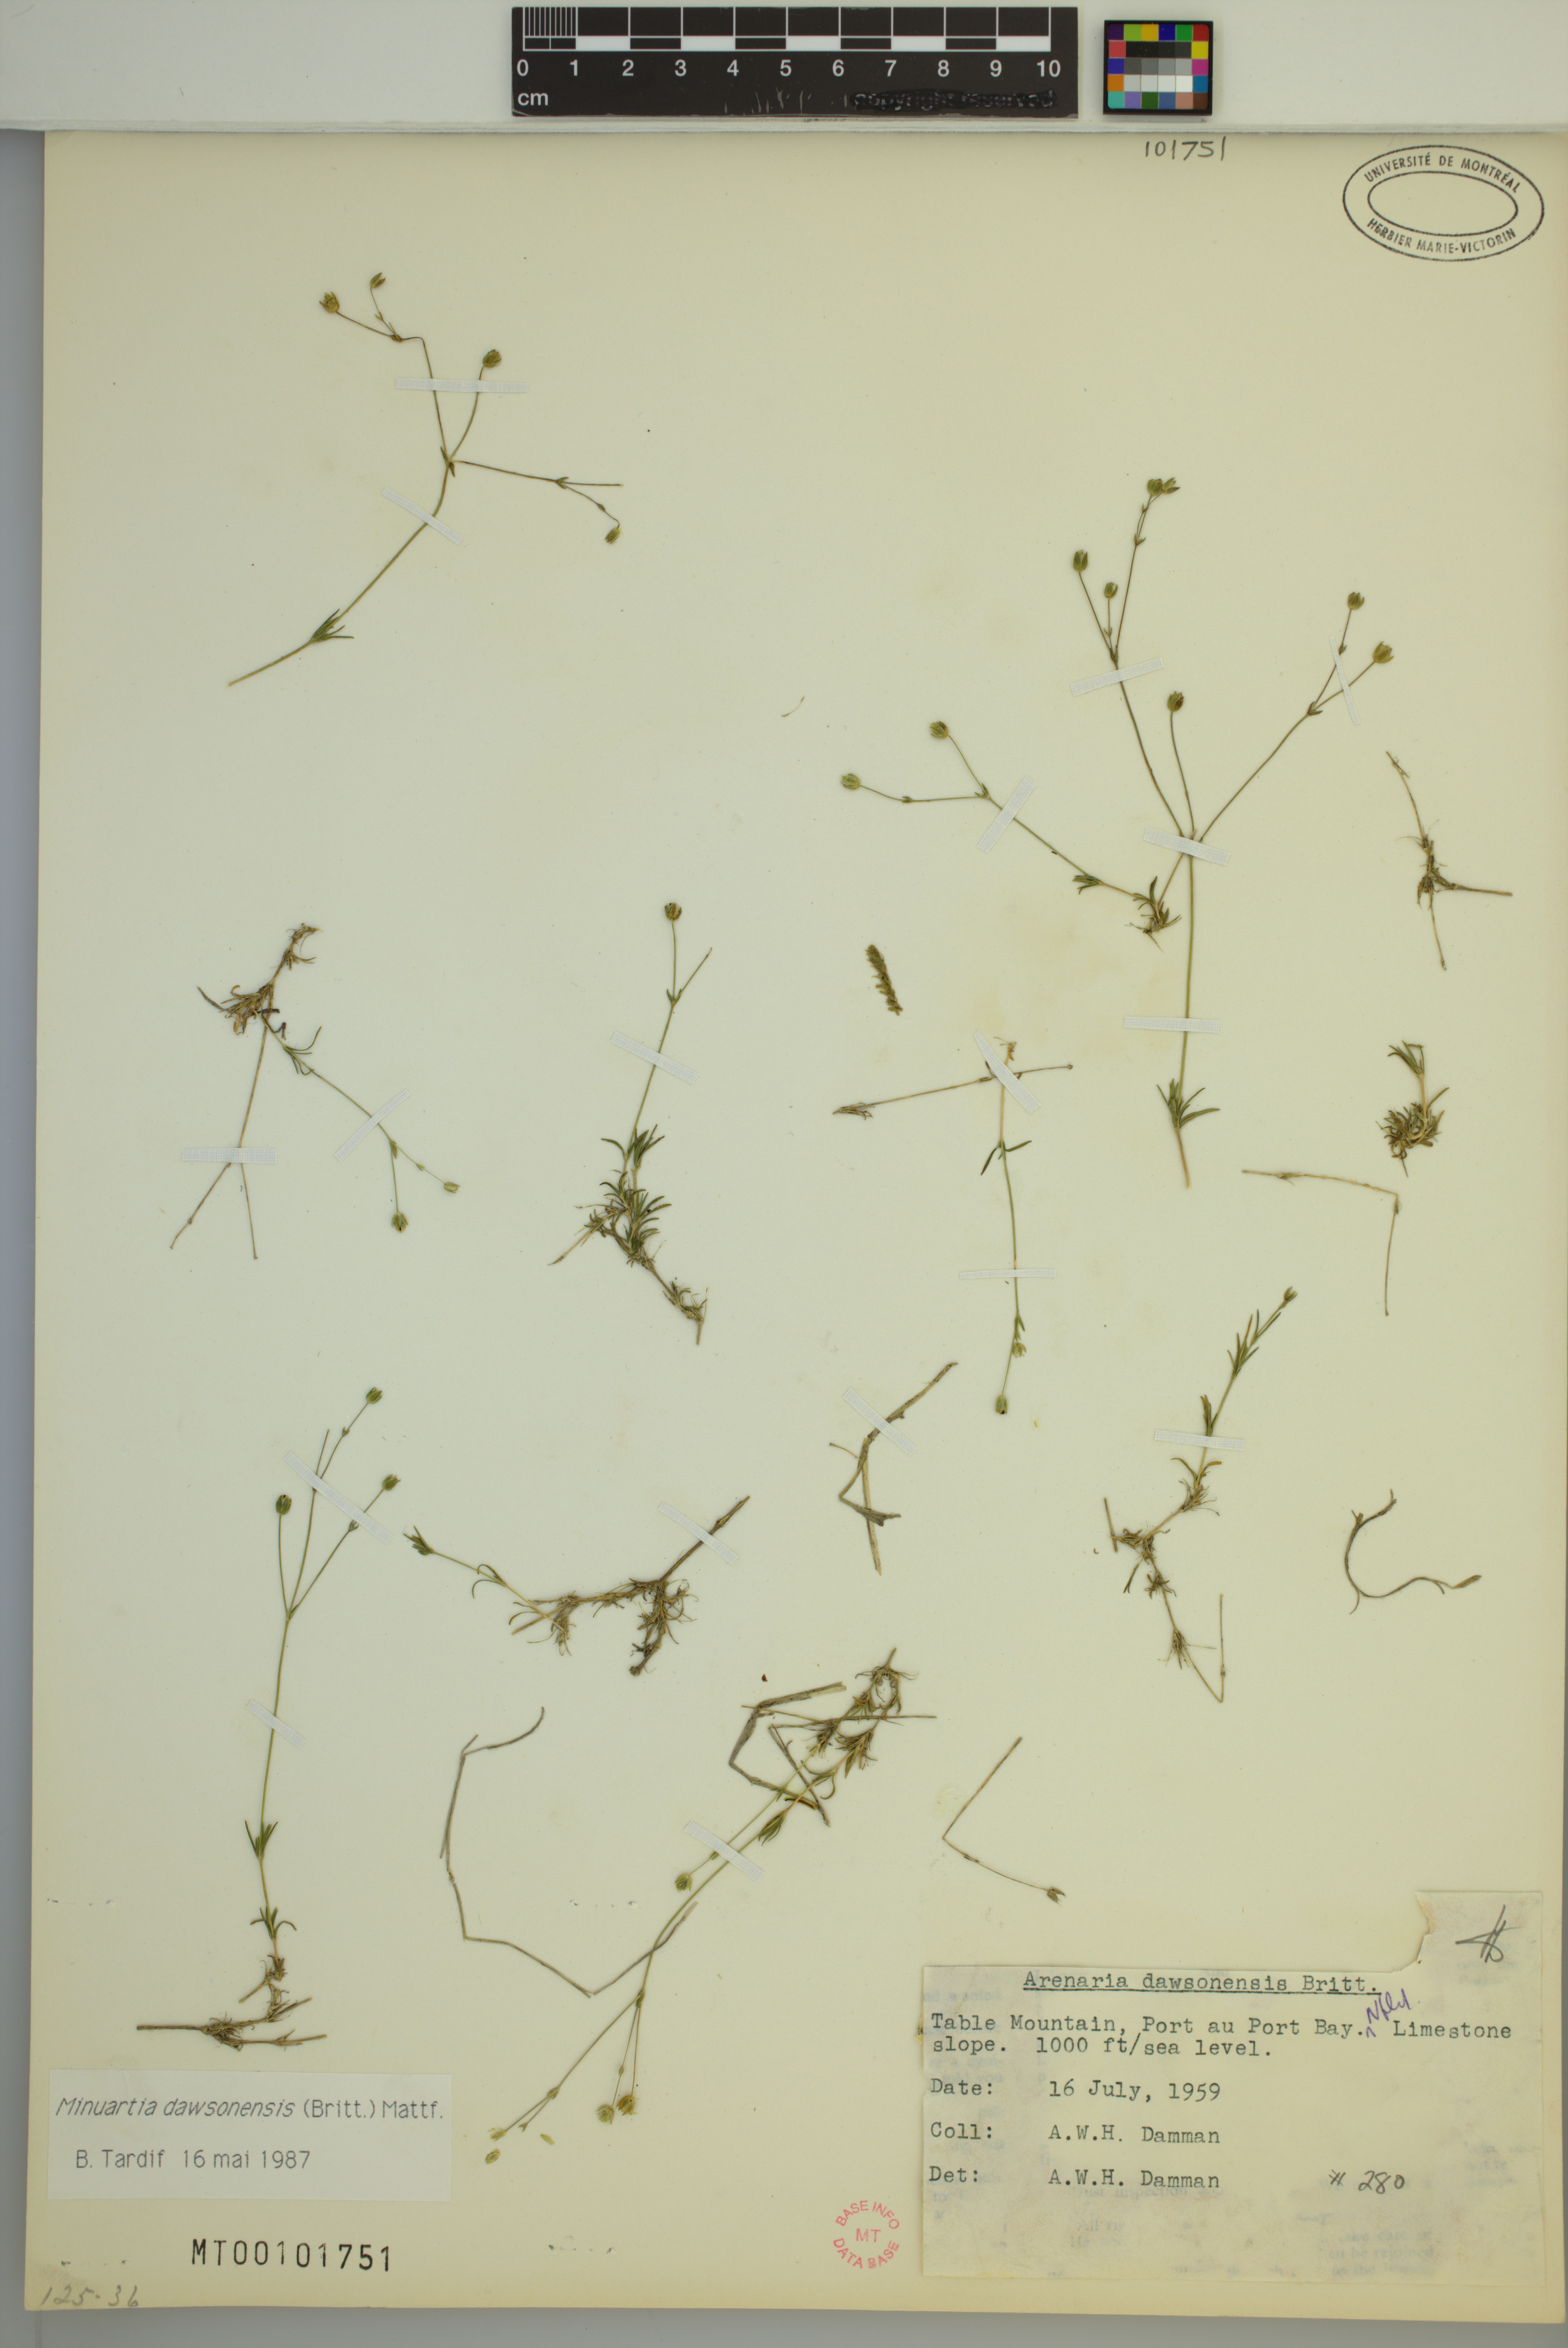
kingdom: Plantae
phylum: Tracheophyta
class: Magnoliopsida
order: Caryophyllales
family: Caryophyllaceae
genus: Sabulina
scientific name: Sabulina dawsonensis
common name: Dawson's cockle
